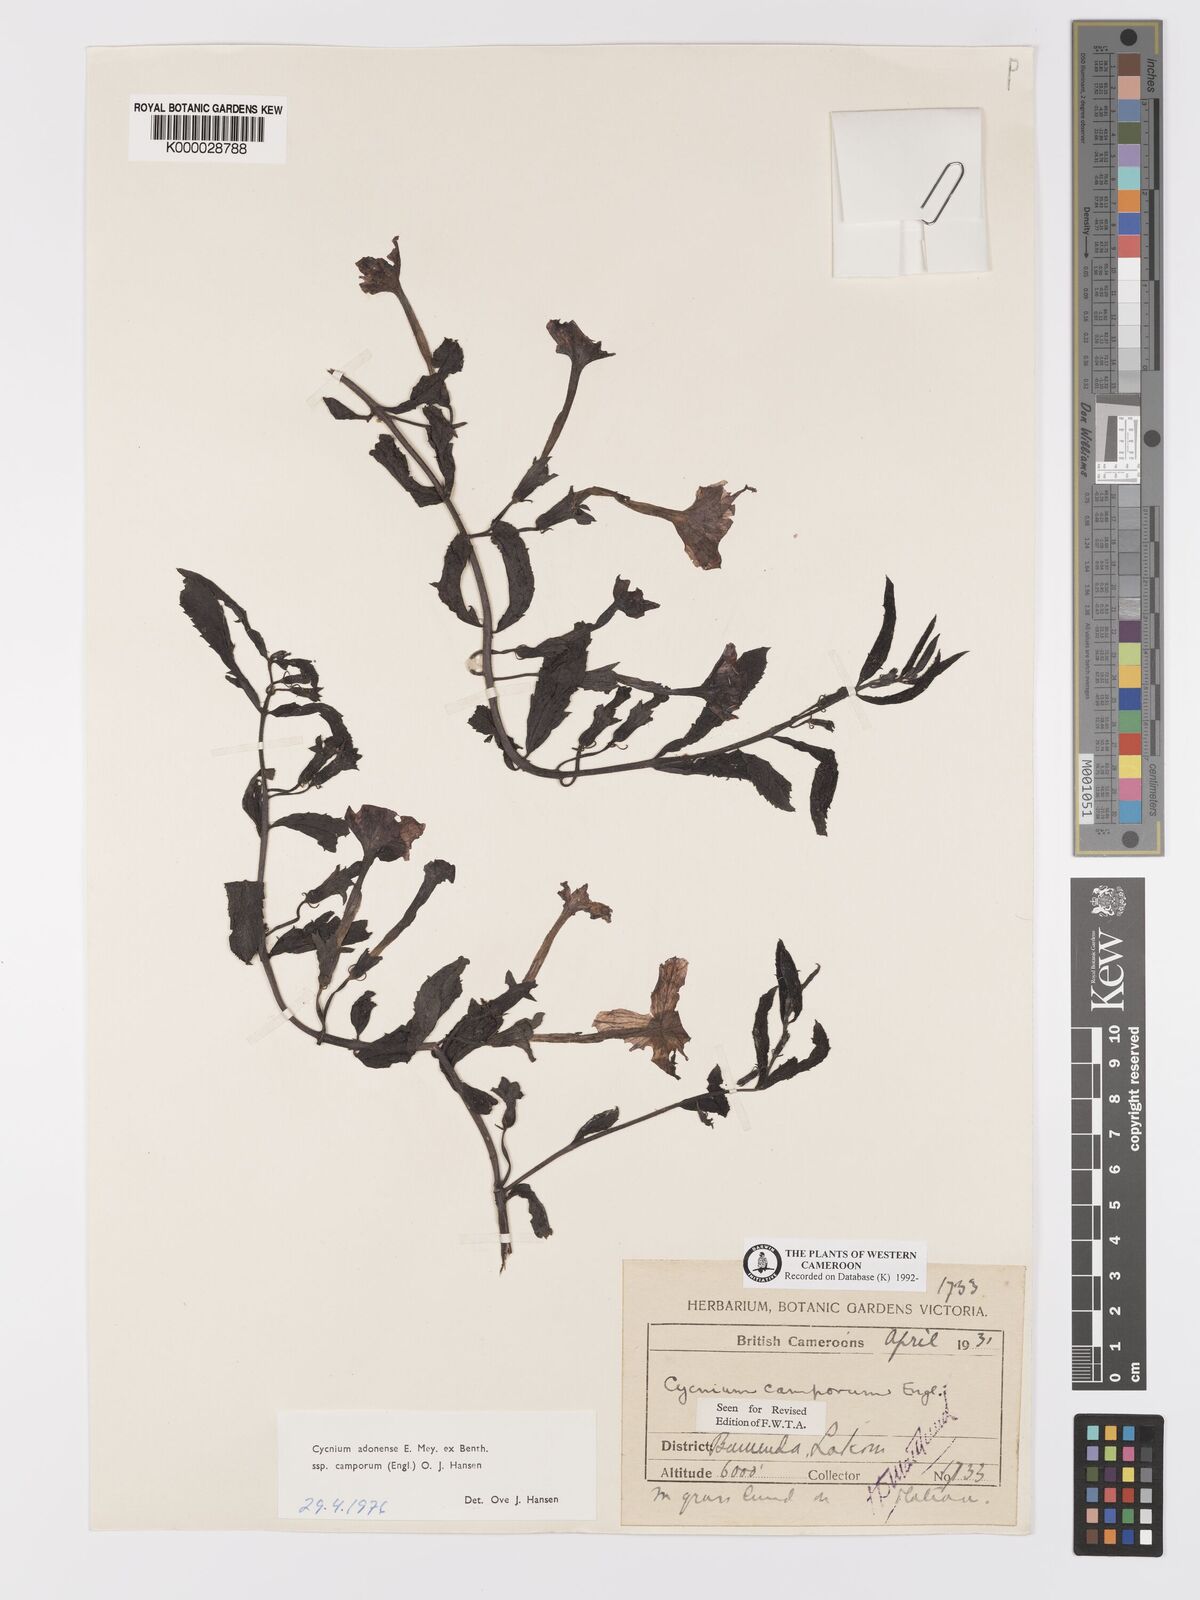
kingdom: Plantae
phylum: Tracheophyta
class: Magnoliopsida
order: Lamiales
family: Orobanchaceae
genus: Cycnium
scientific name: Cycnium adoense
